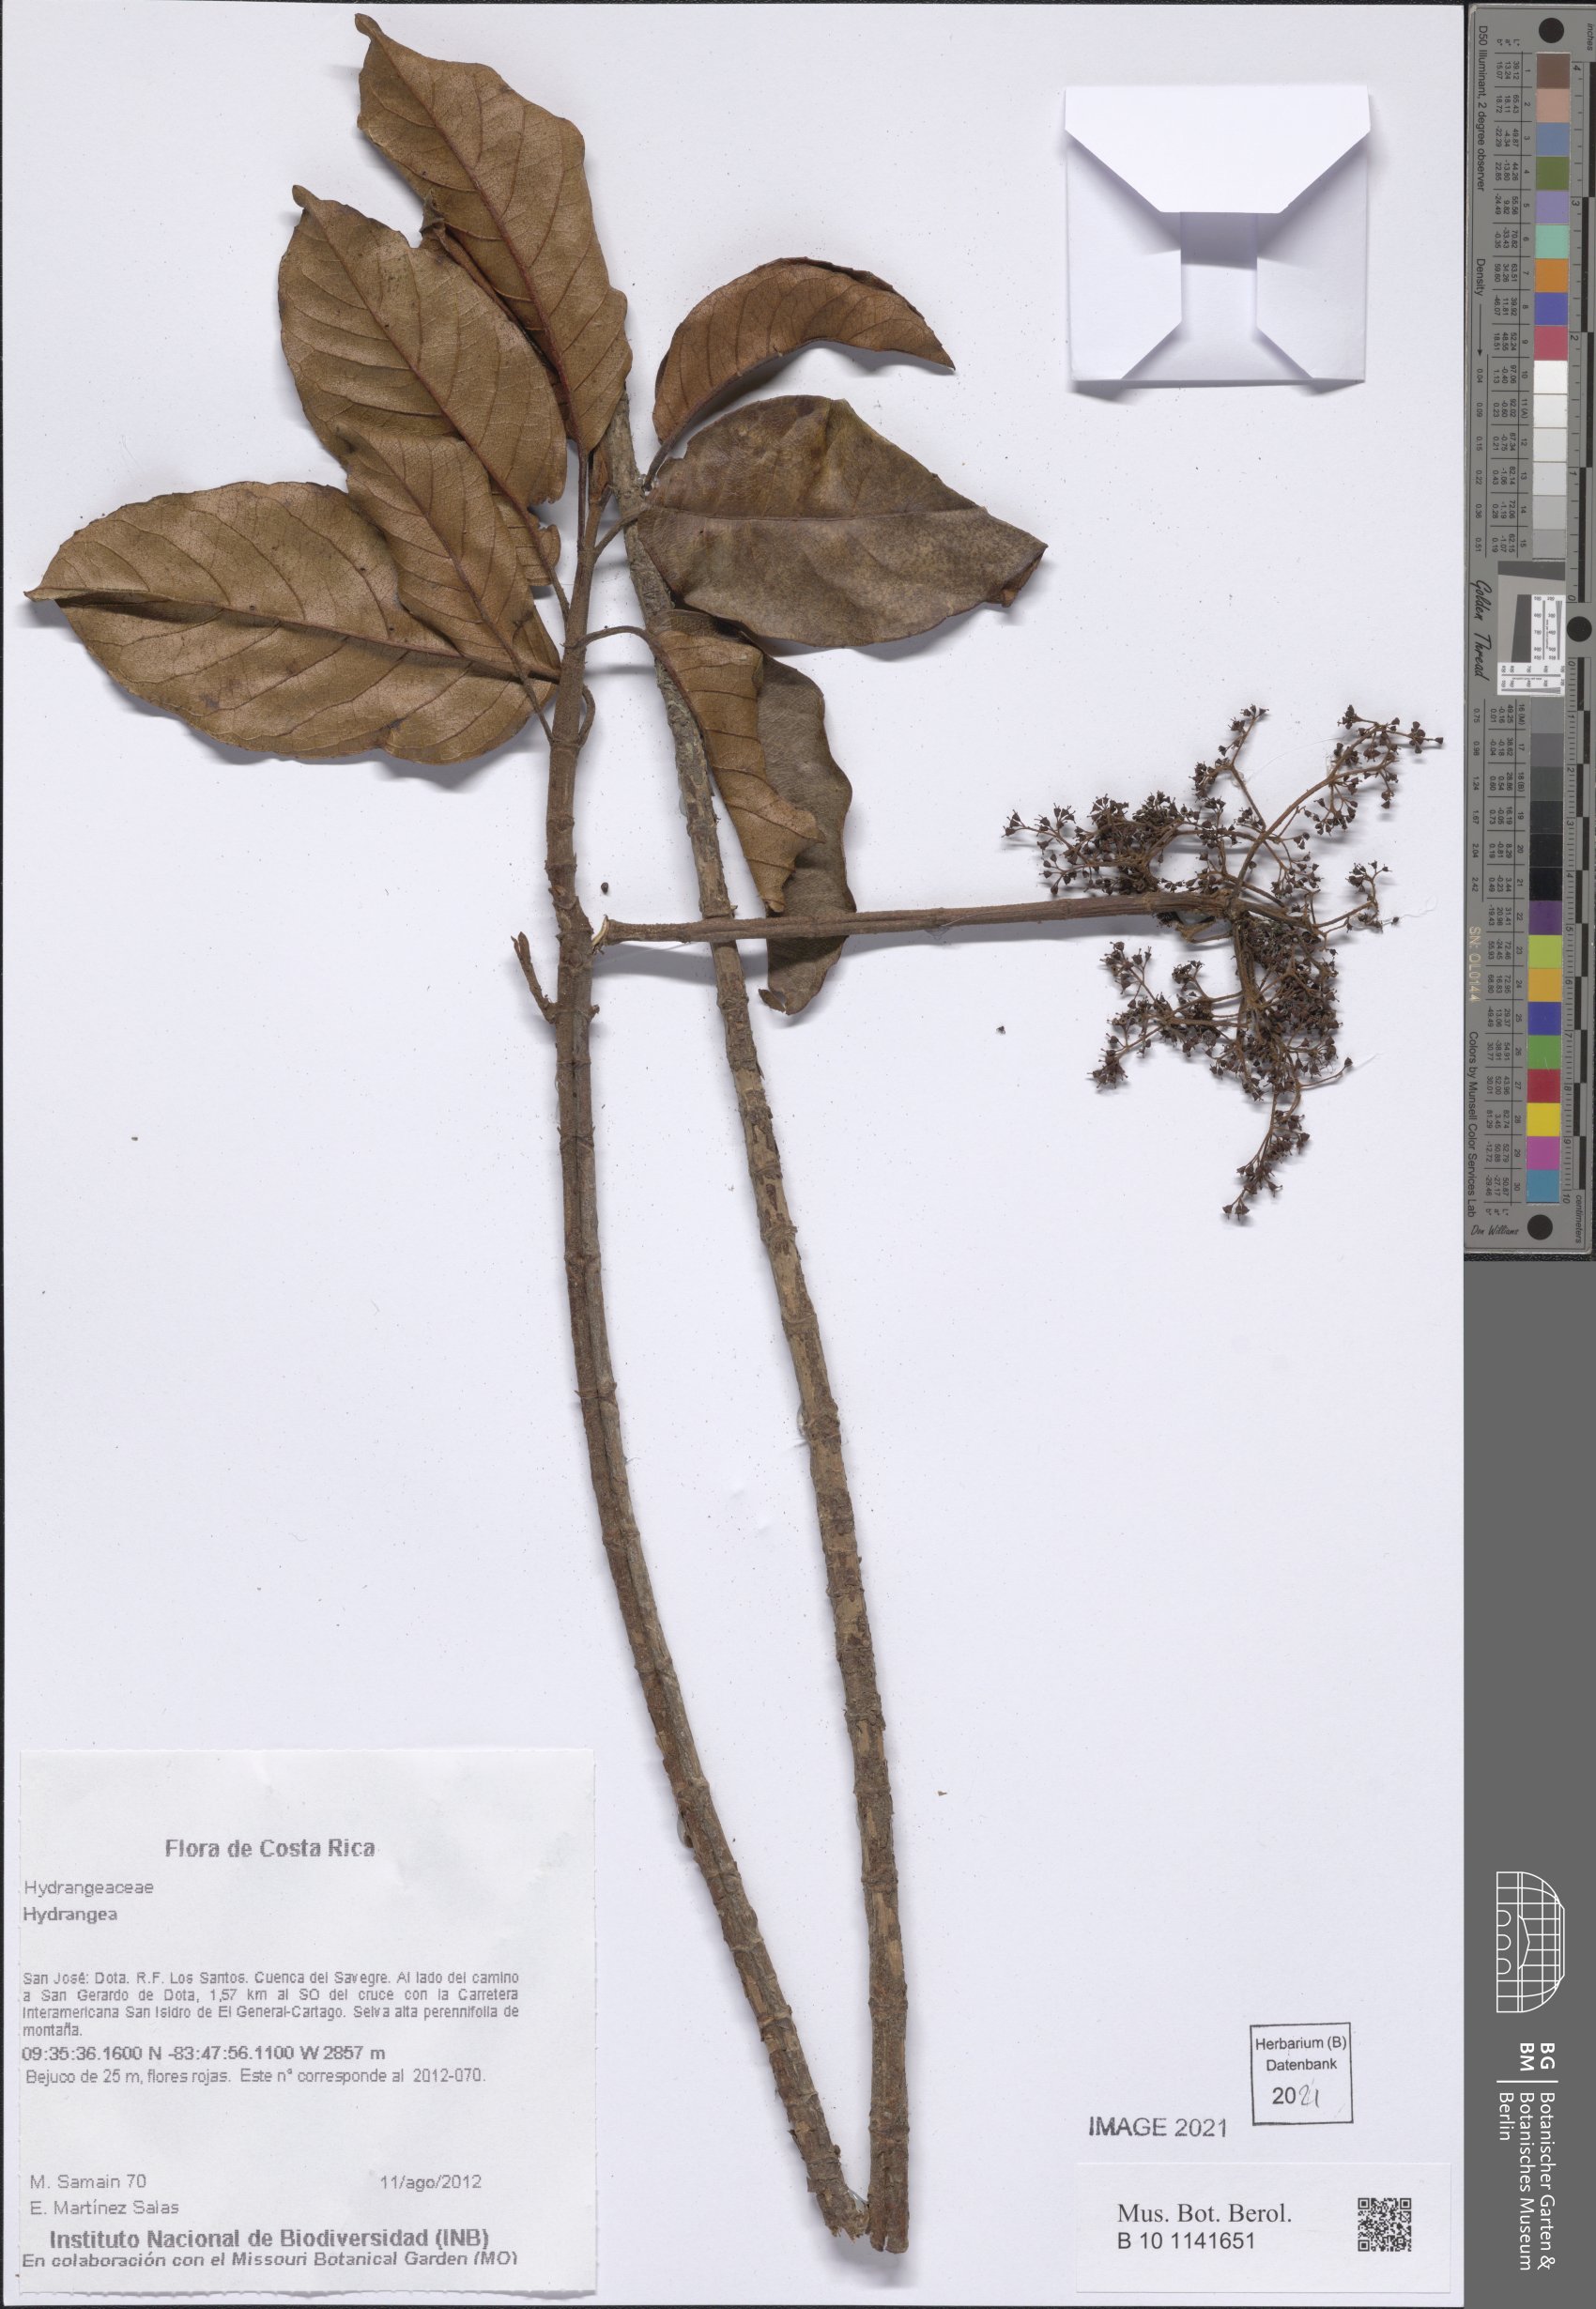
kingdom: Plantae
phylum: Tracheophyta
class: Magnoliopsida
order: Cornales
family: Hydrangeaceae
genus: Hydrangea
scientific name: Hydrangea
